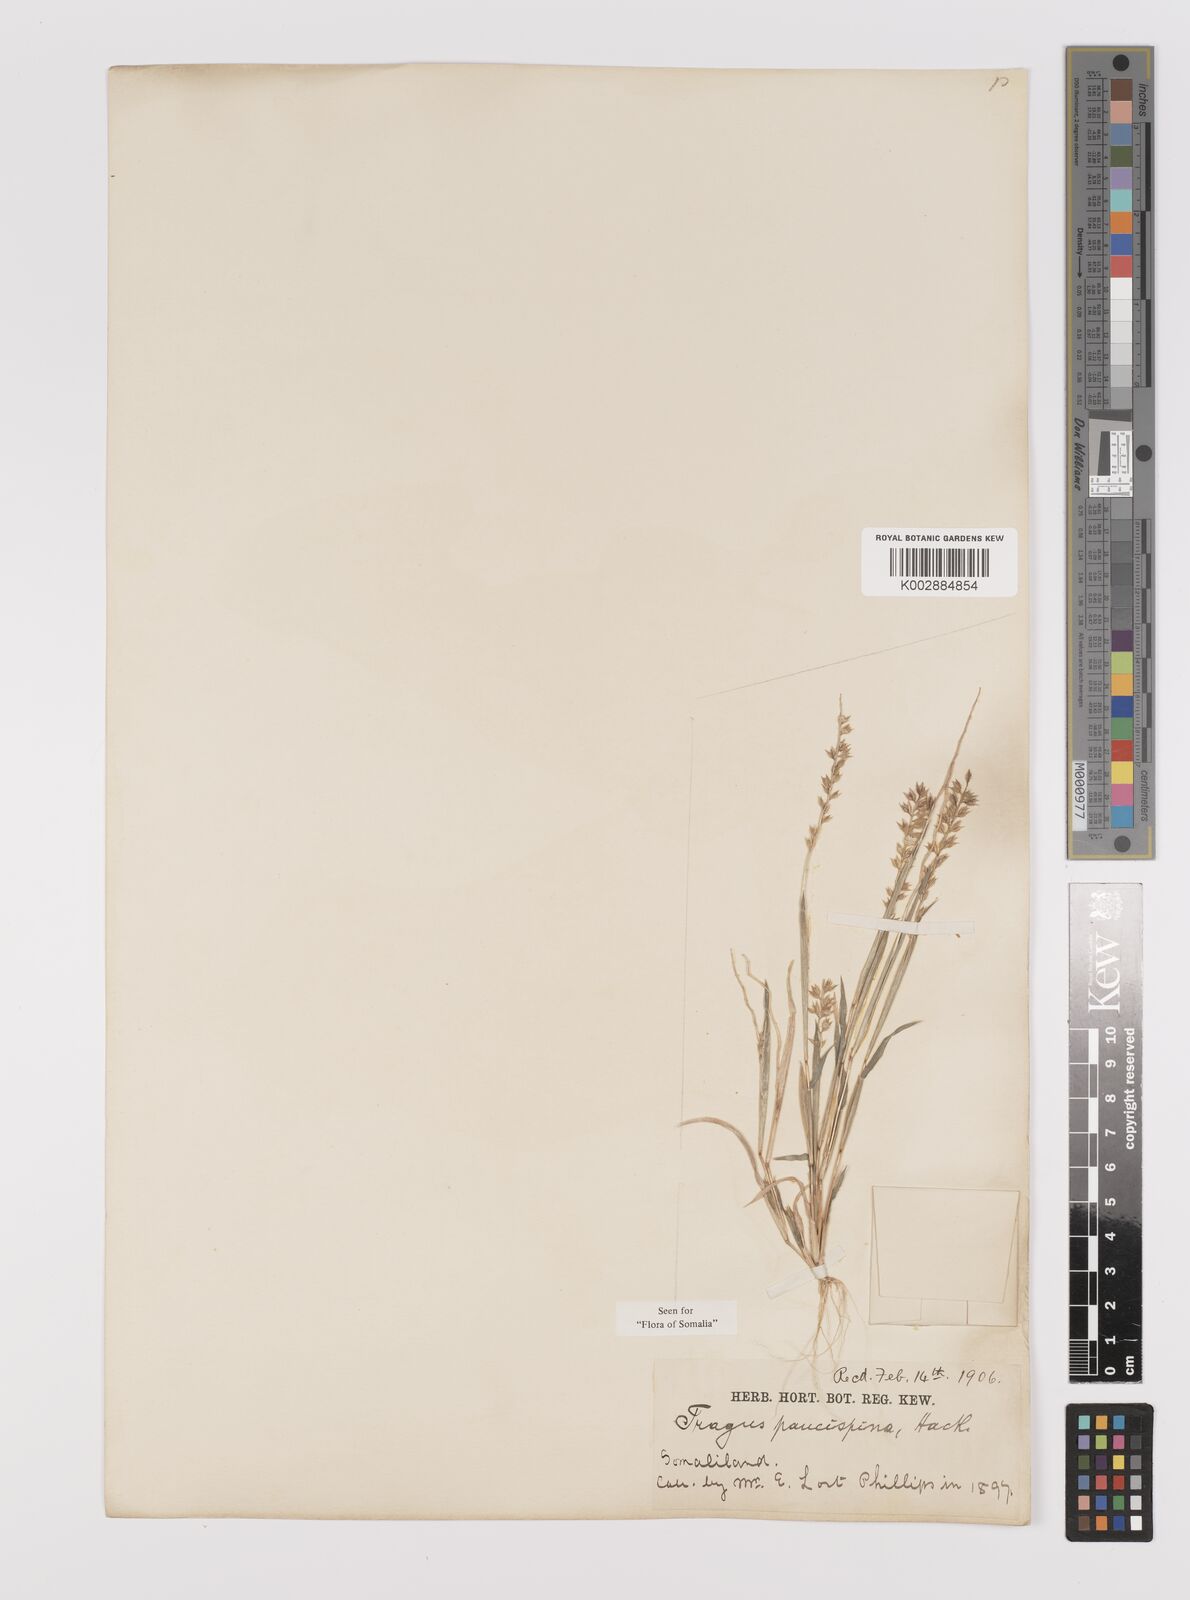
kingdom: Plantae
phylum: Tracheophyta
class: Liliopsida
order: Poales
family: Poaceae
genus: Tragus
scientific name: Tragus racemosus
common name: European bur-grass
